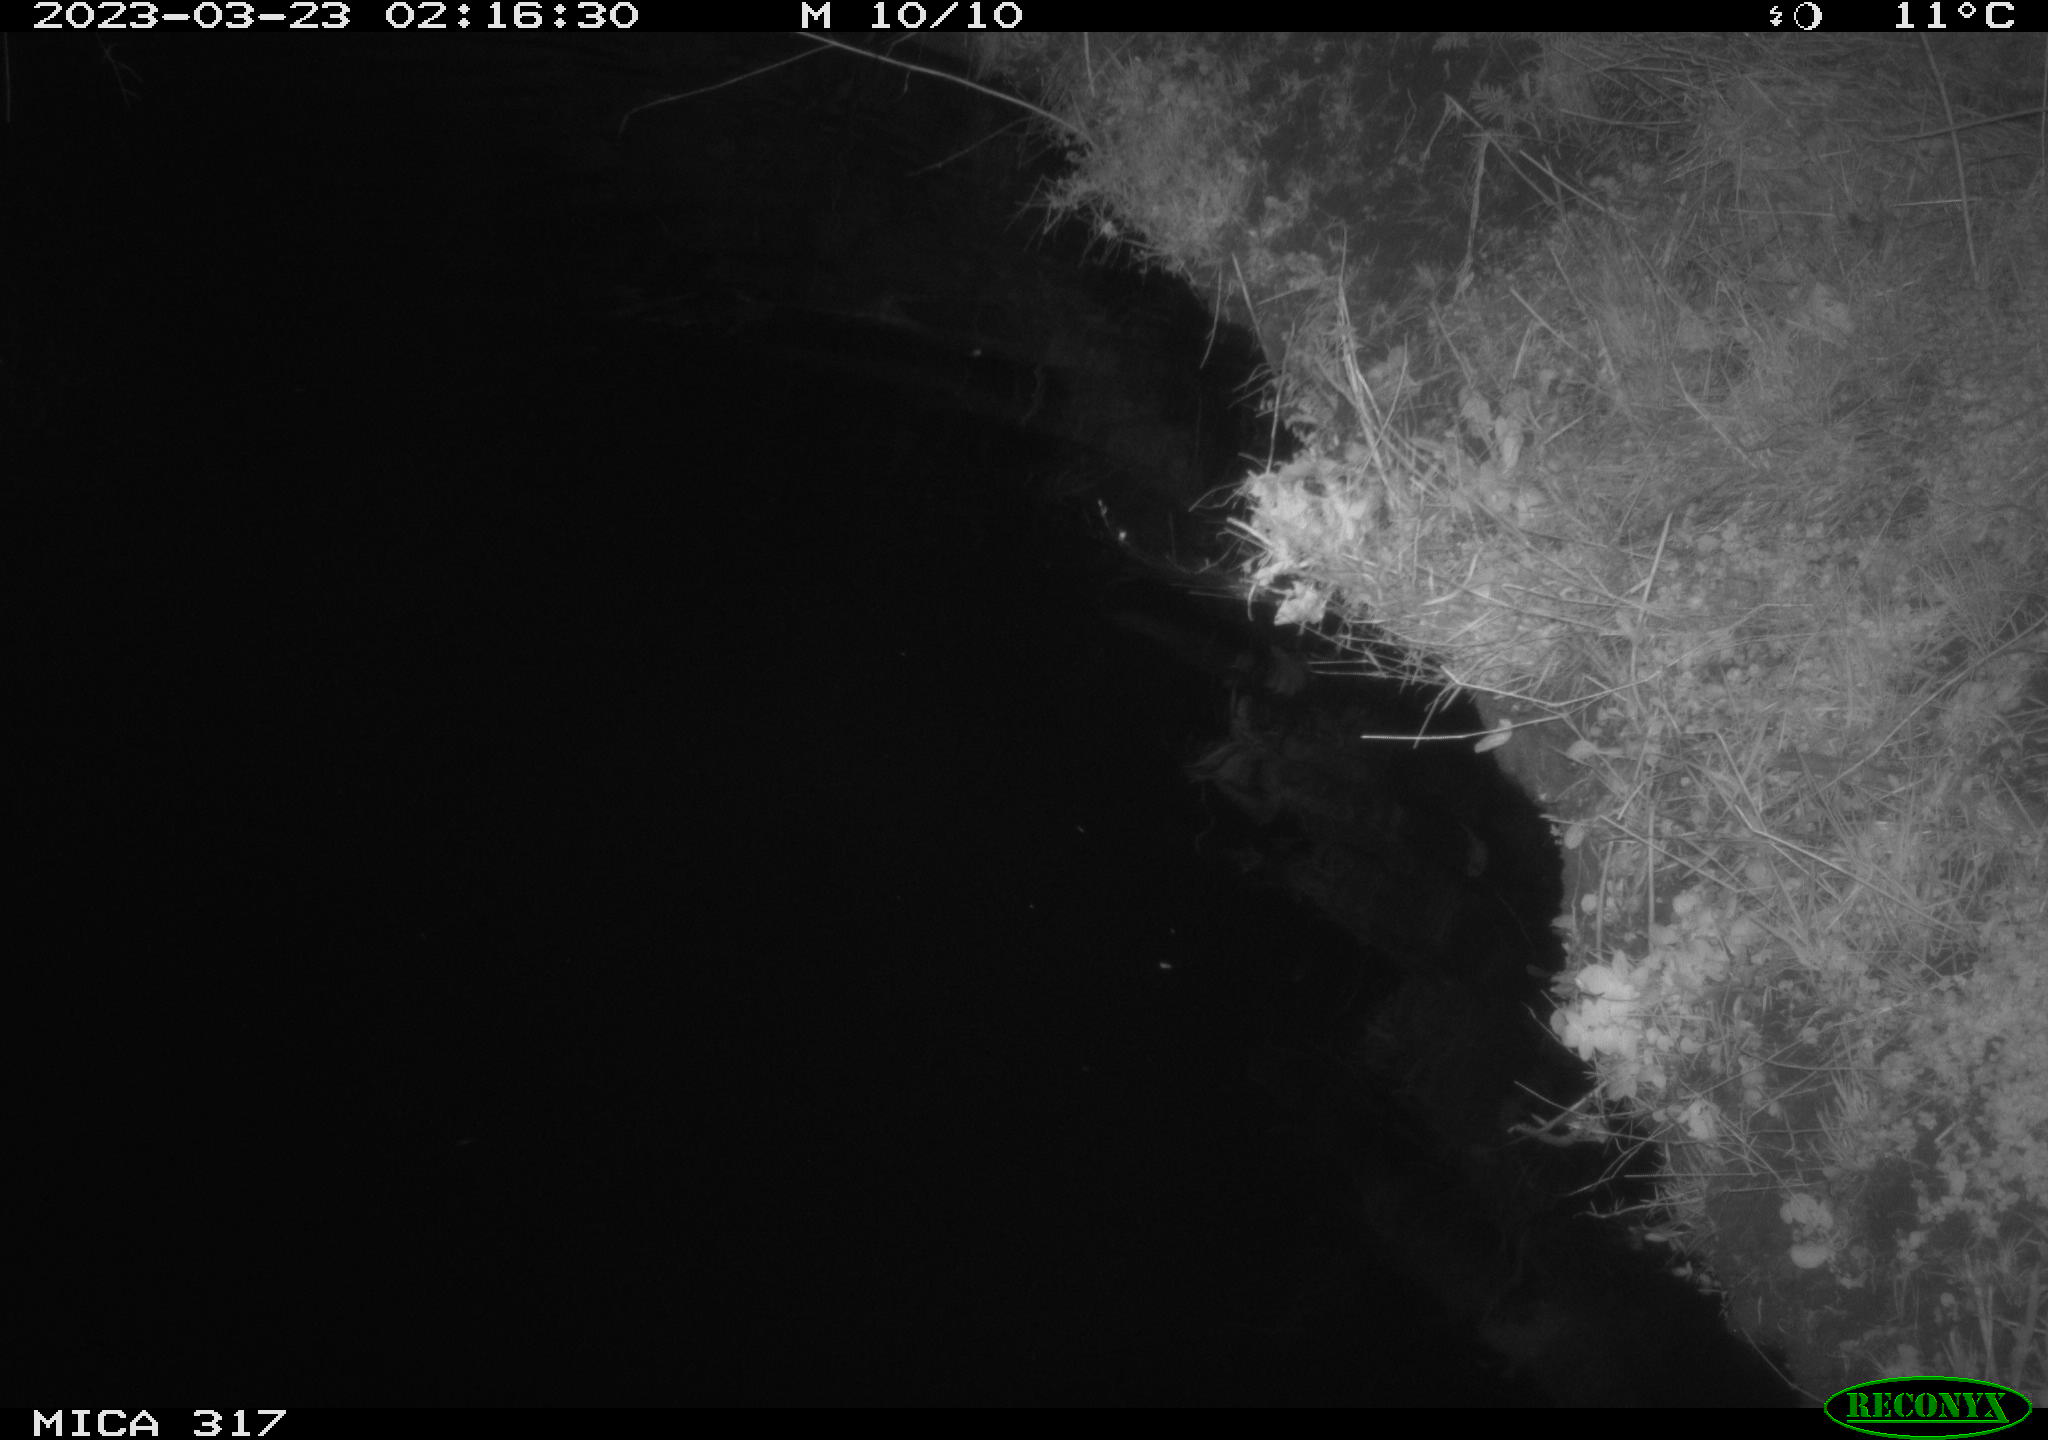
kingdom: Animalia
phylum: Chordata
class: Aves
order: Anseriformes
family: Anatidae
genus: Anas
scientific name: Anas
